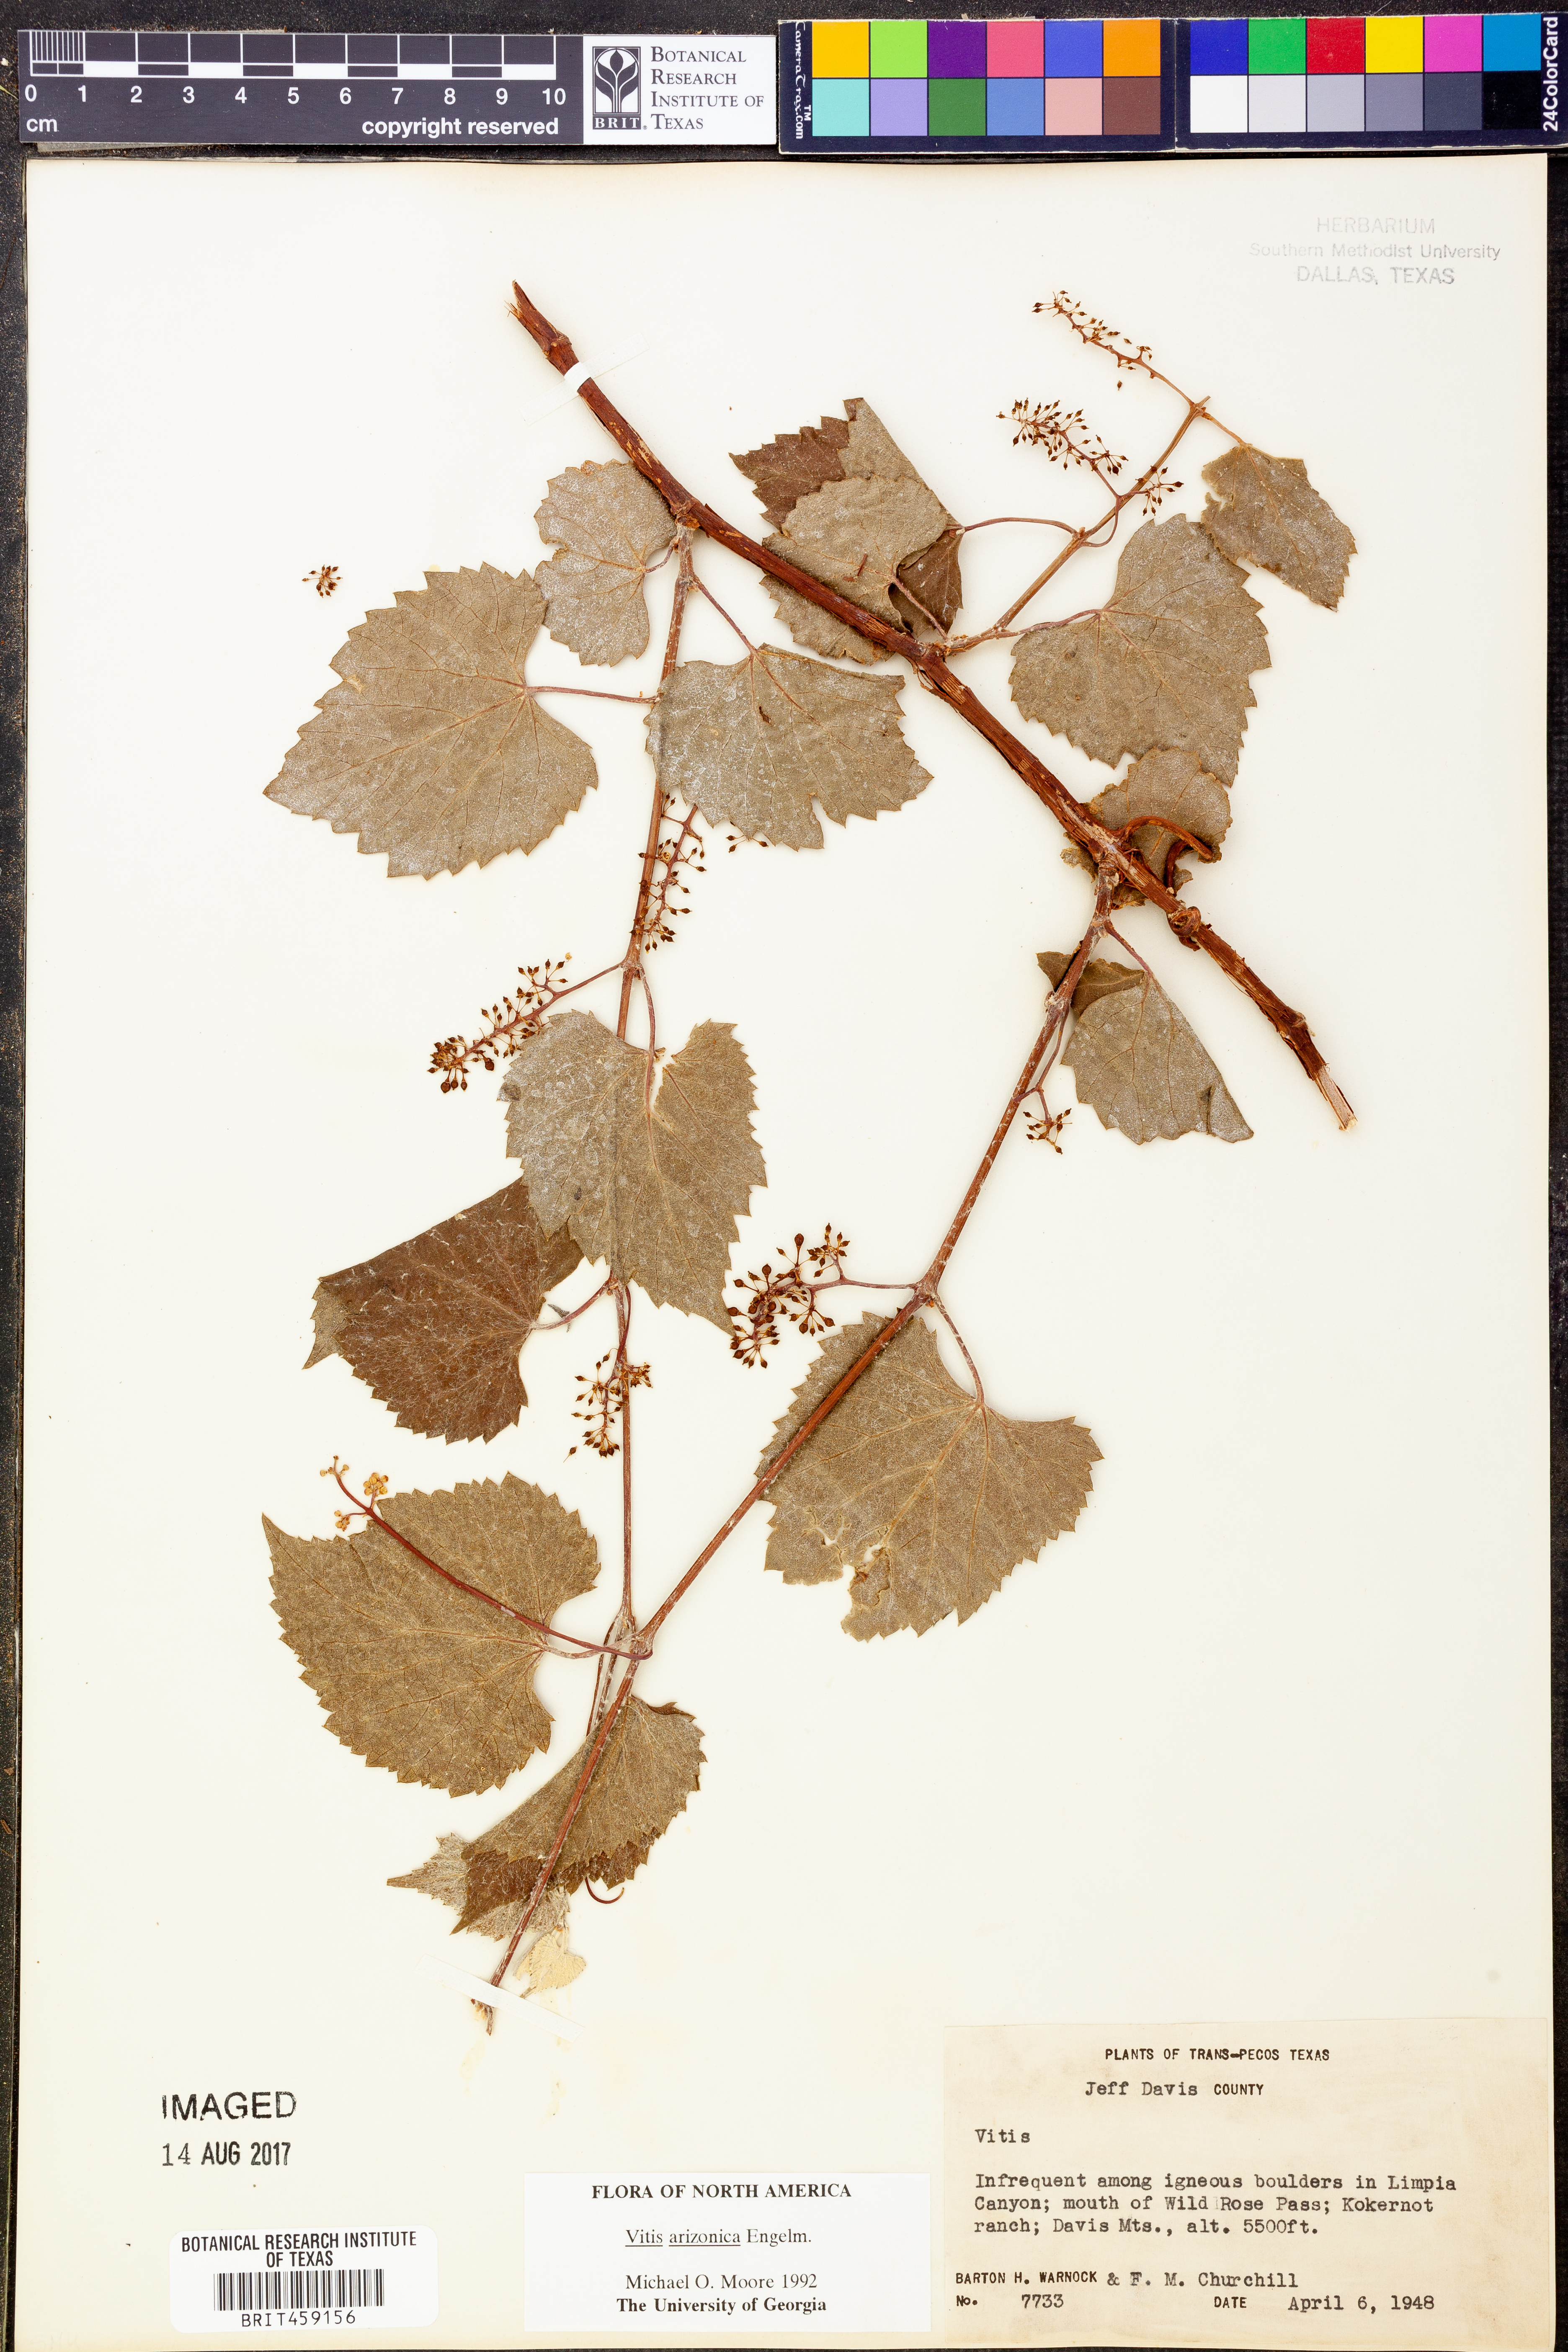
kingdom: Plantae
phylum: Tracheophyta
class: Magnoliopsida
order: Vitales
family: Vitaceae
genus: Vitis
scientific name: Vitis arizonica
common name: Canyon grape
